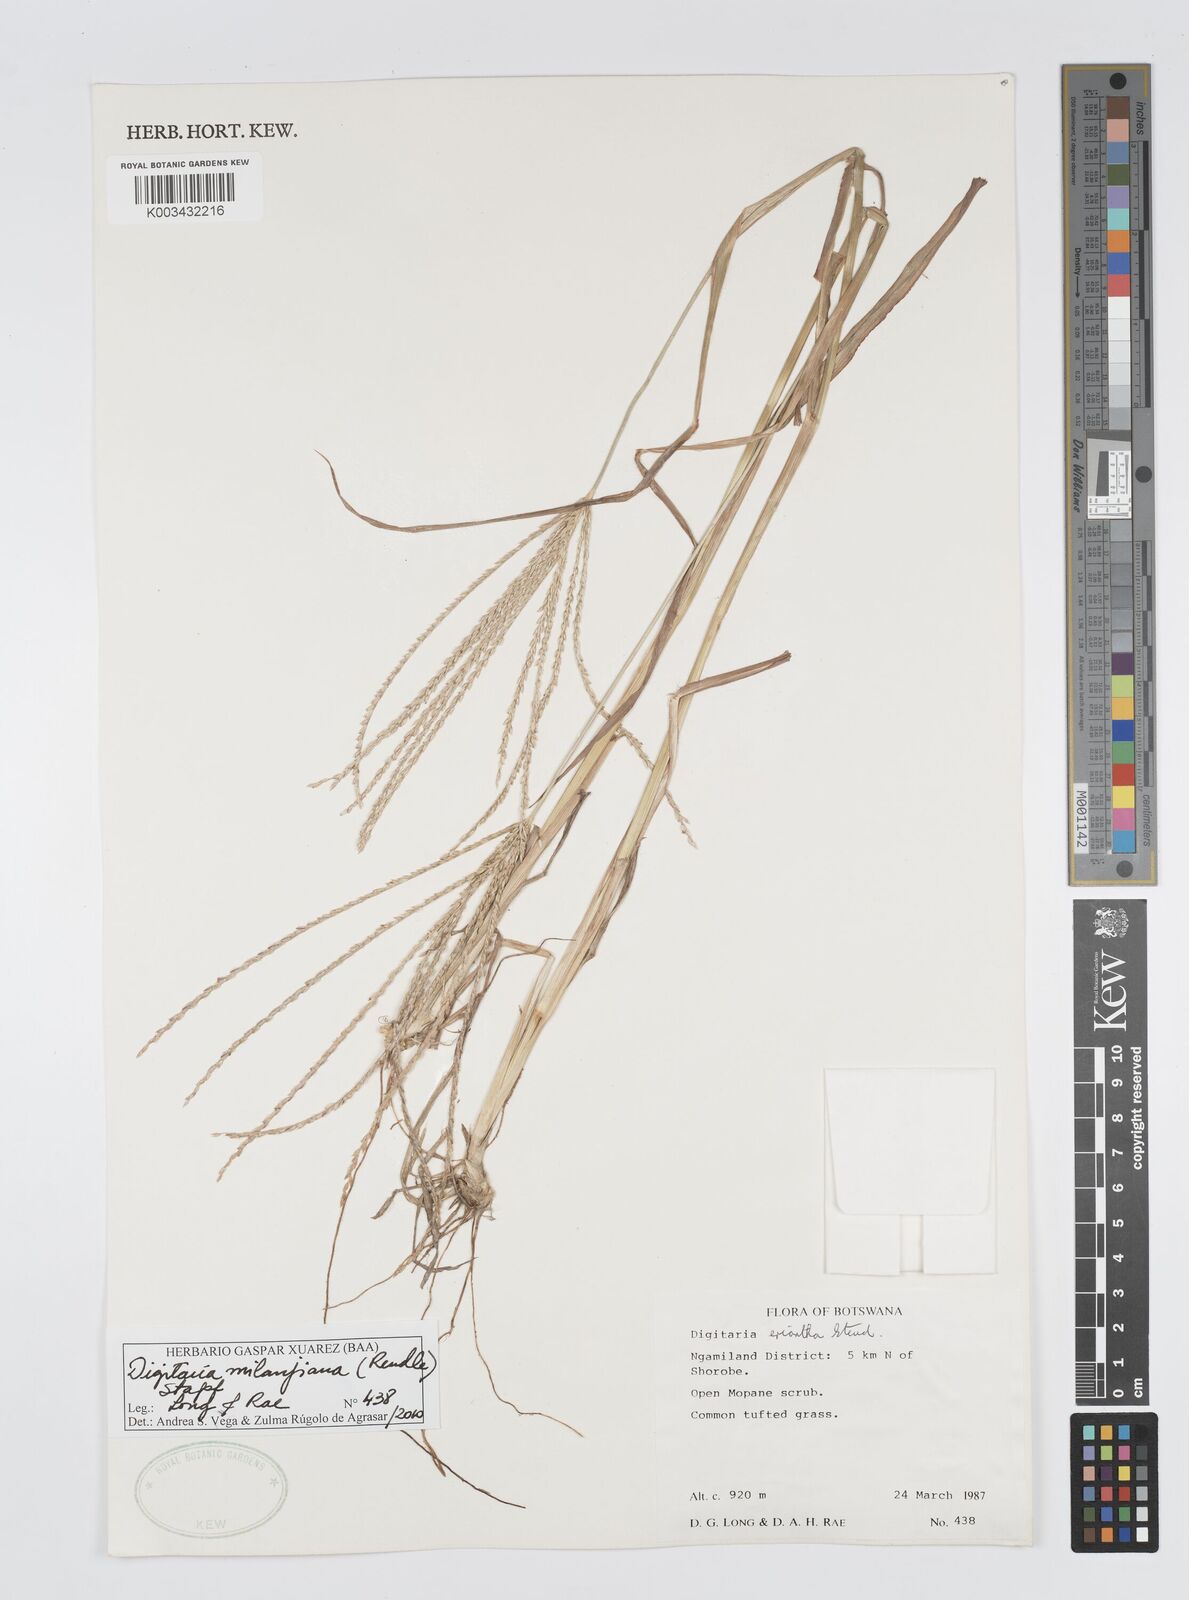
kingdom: Plantae
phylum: Tracheophyta
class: Liliopsida
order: Poales
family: Poaceae
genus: Digitaria
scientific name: Digitaria milanjiana
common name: Madagascar crabgrass
